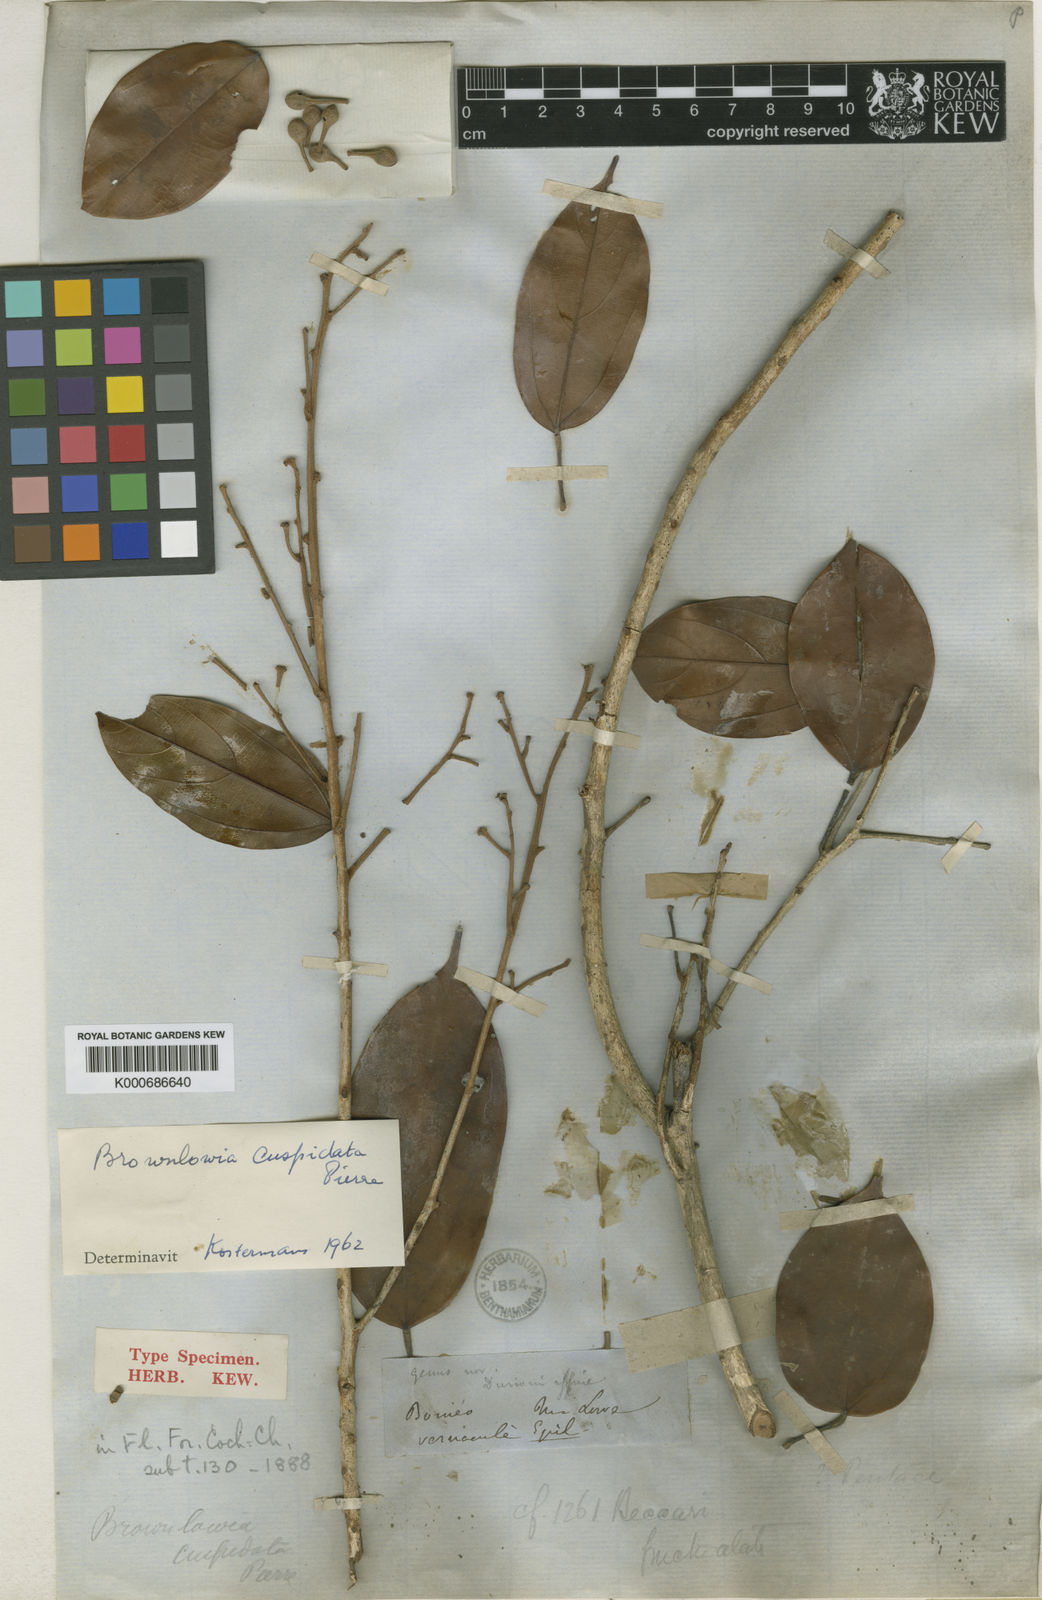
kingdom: Plantae
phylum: Tracheophyta
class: Magnoliopsida
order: Malvales
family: Malvaceae
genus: Brownlowia
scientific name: Brownlowia cuspidata
